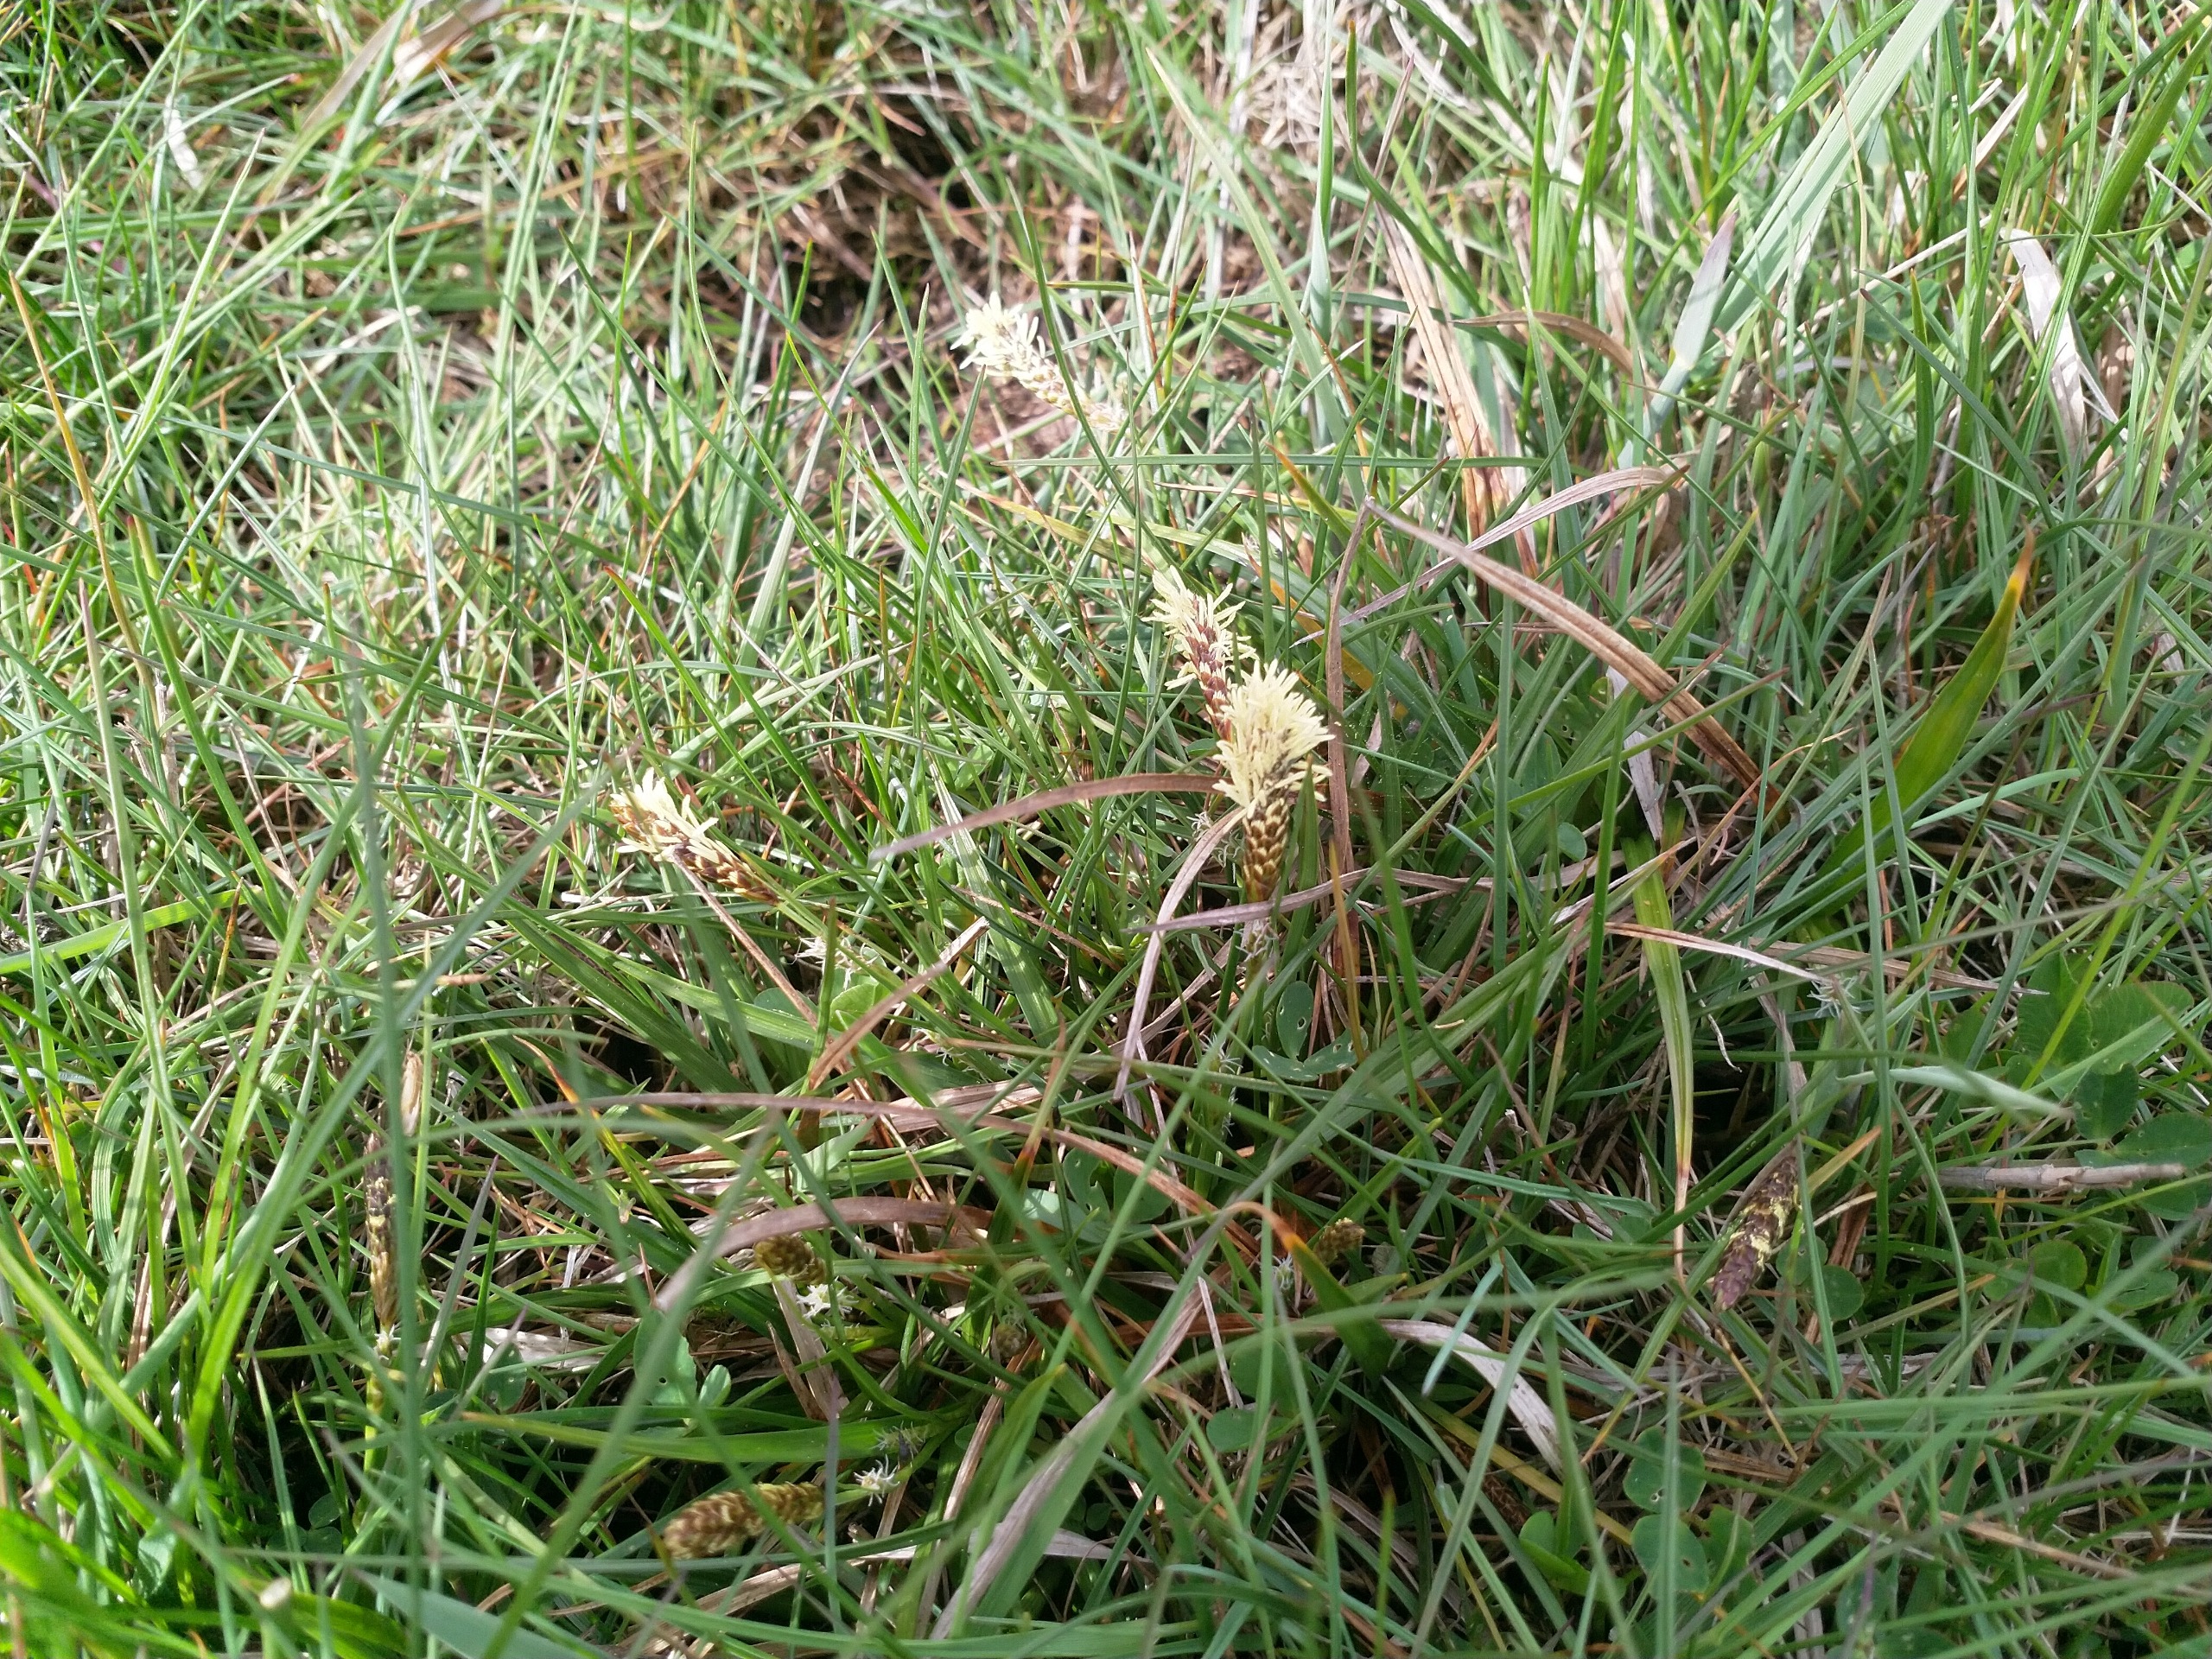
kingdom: Plantae
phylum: Tracheophyta
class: Liliopsida
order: Poales
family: Cyperaceae
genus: Carex
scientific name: Carex
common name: Starslægten
